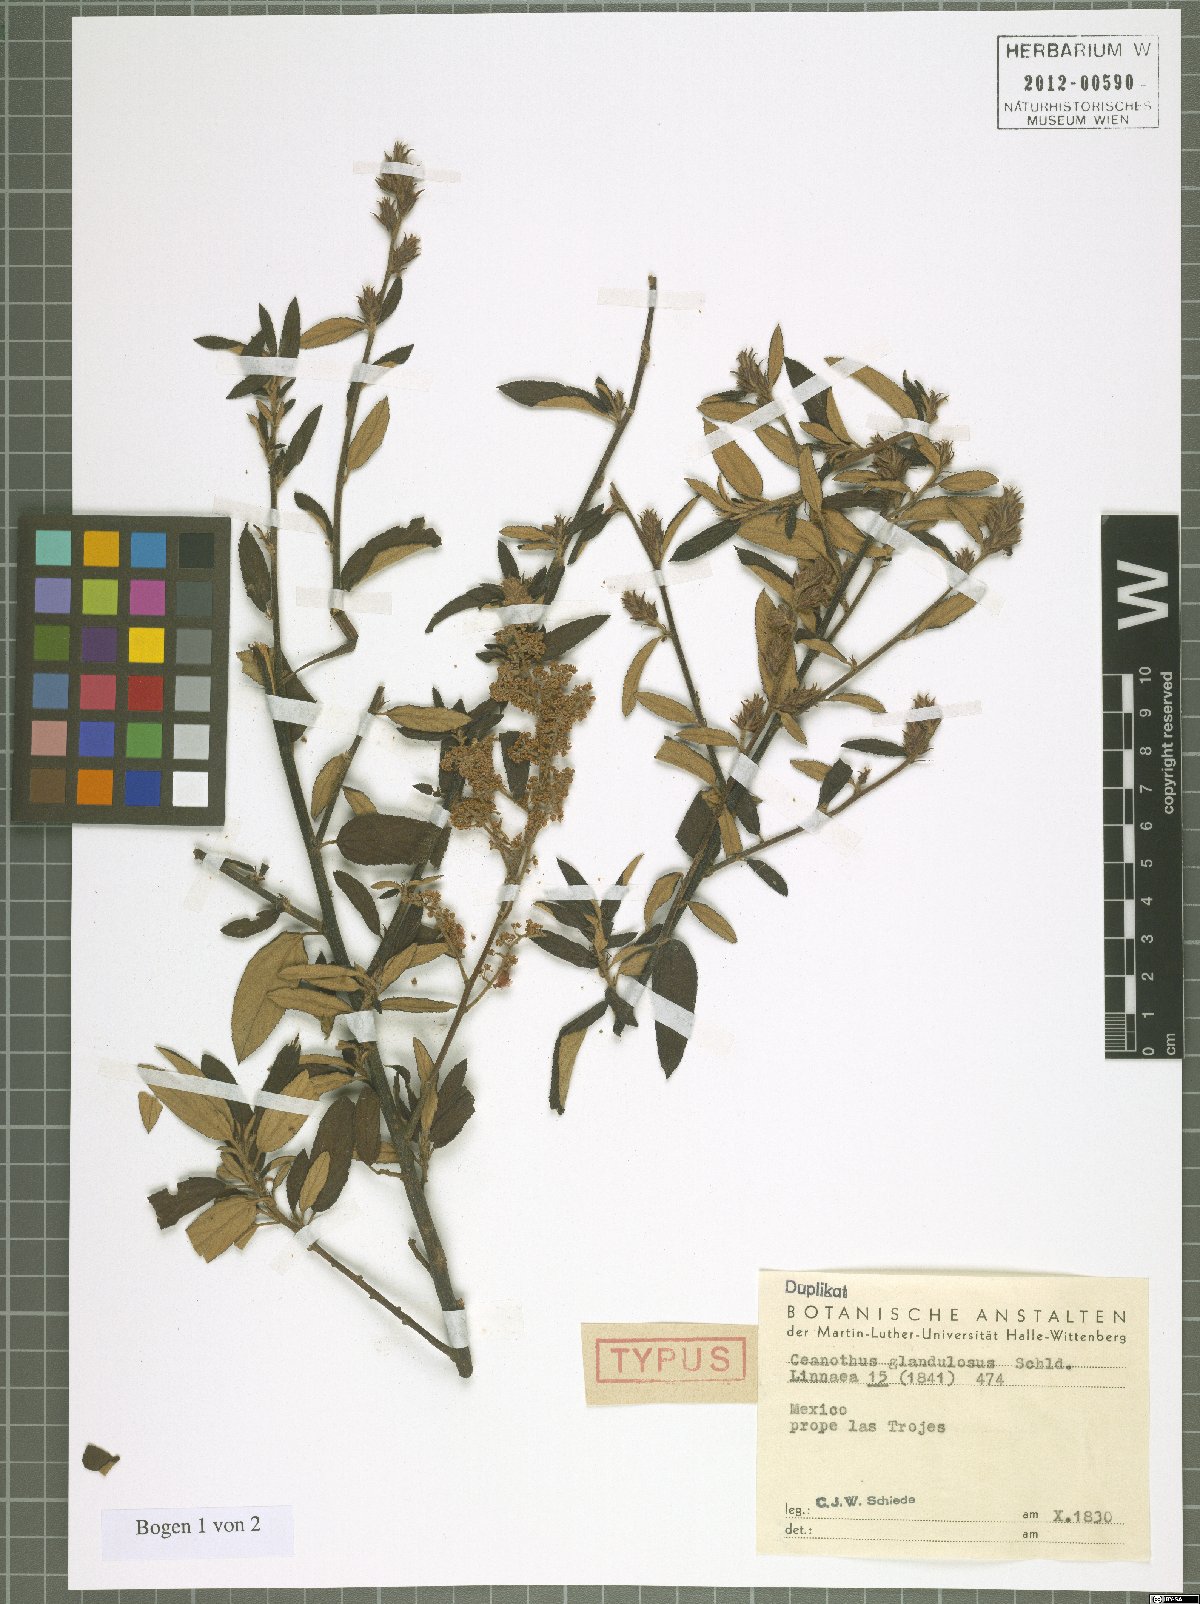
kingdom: Plantae
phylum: Tracheophyta
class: Magnoliopsida
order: Rosales
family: Rhamnaceae
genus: Ceanothus
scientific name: Ceanothus caeruleus
